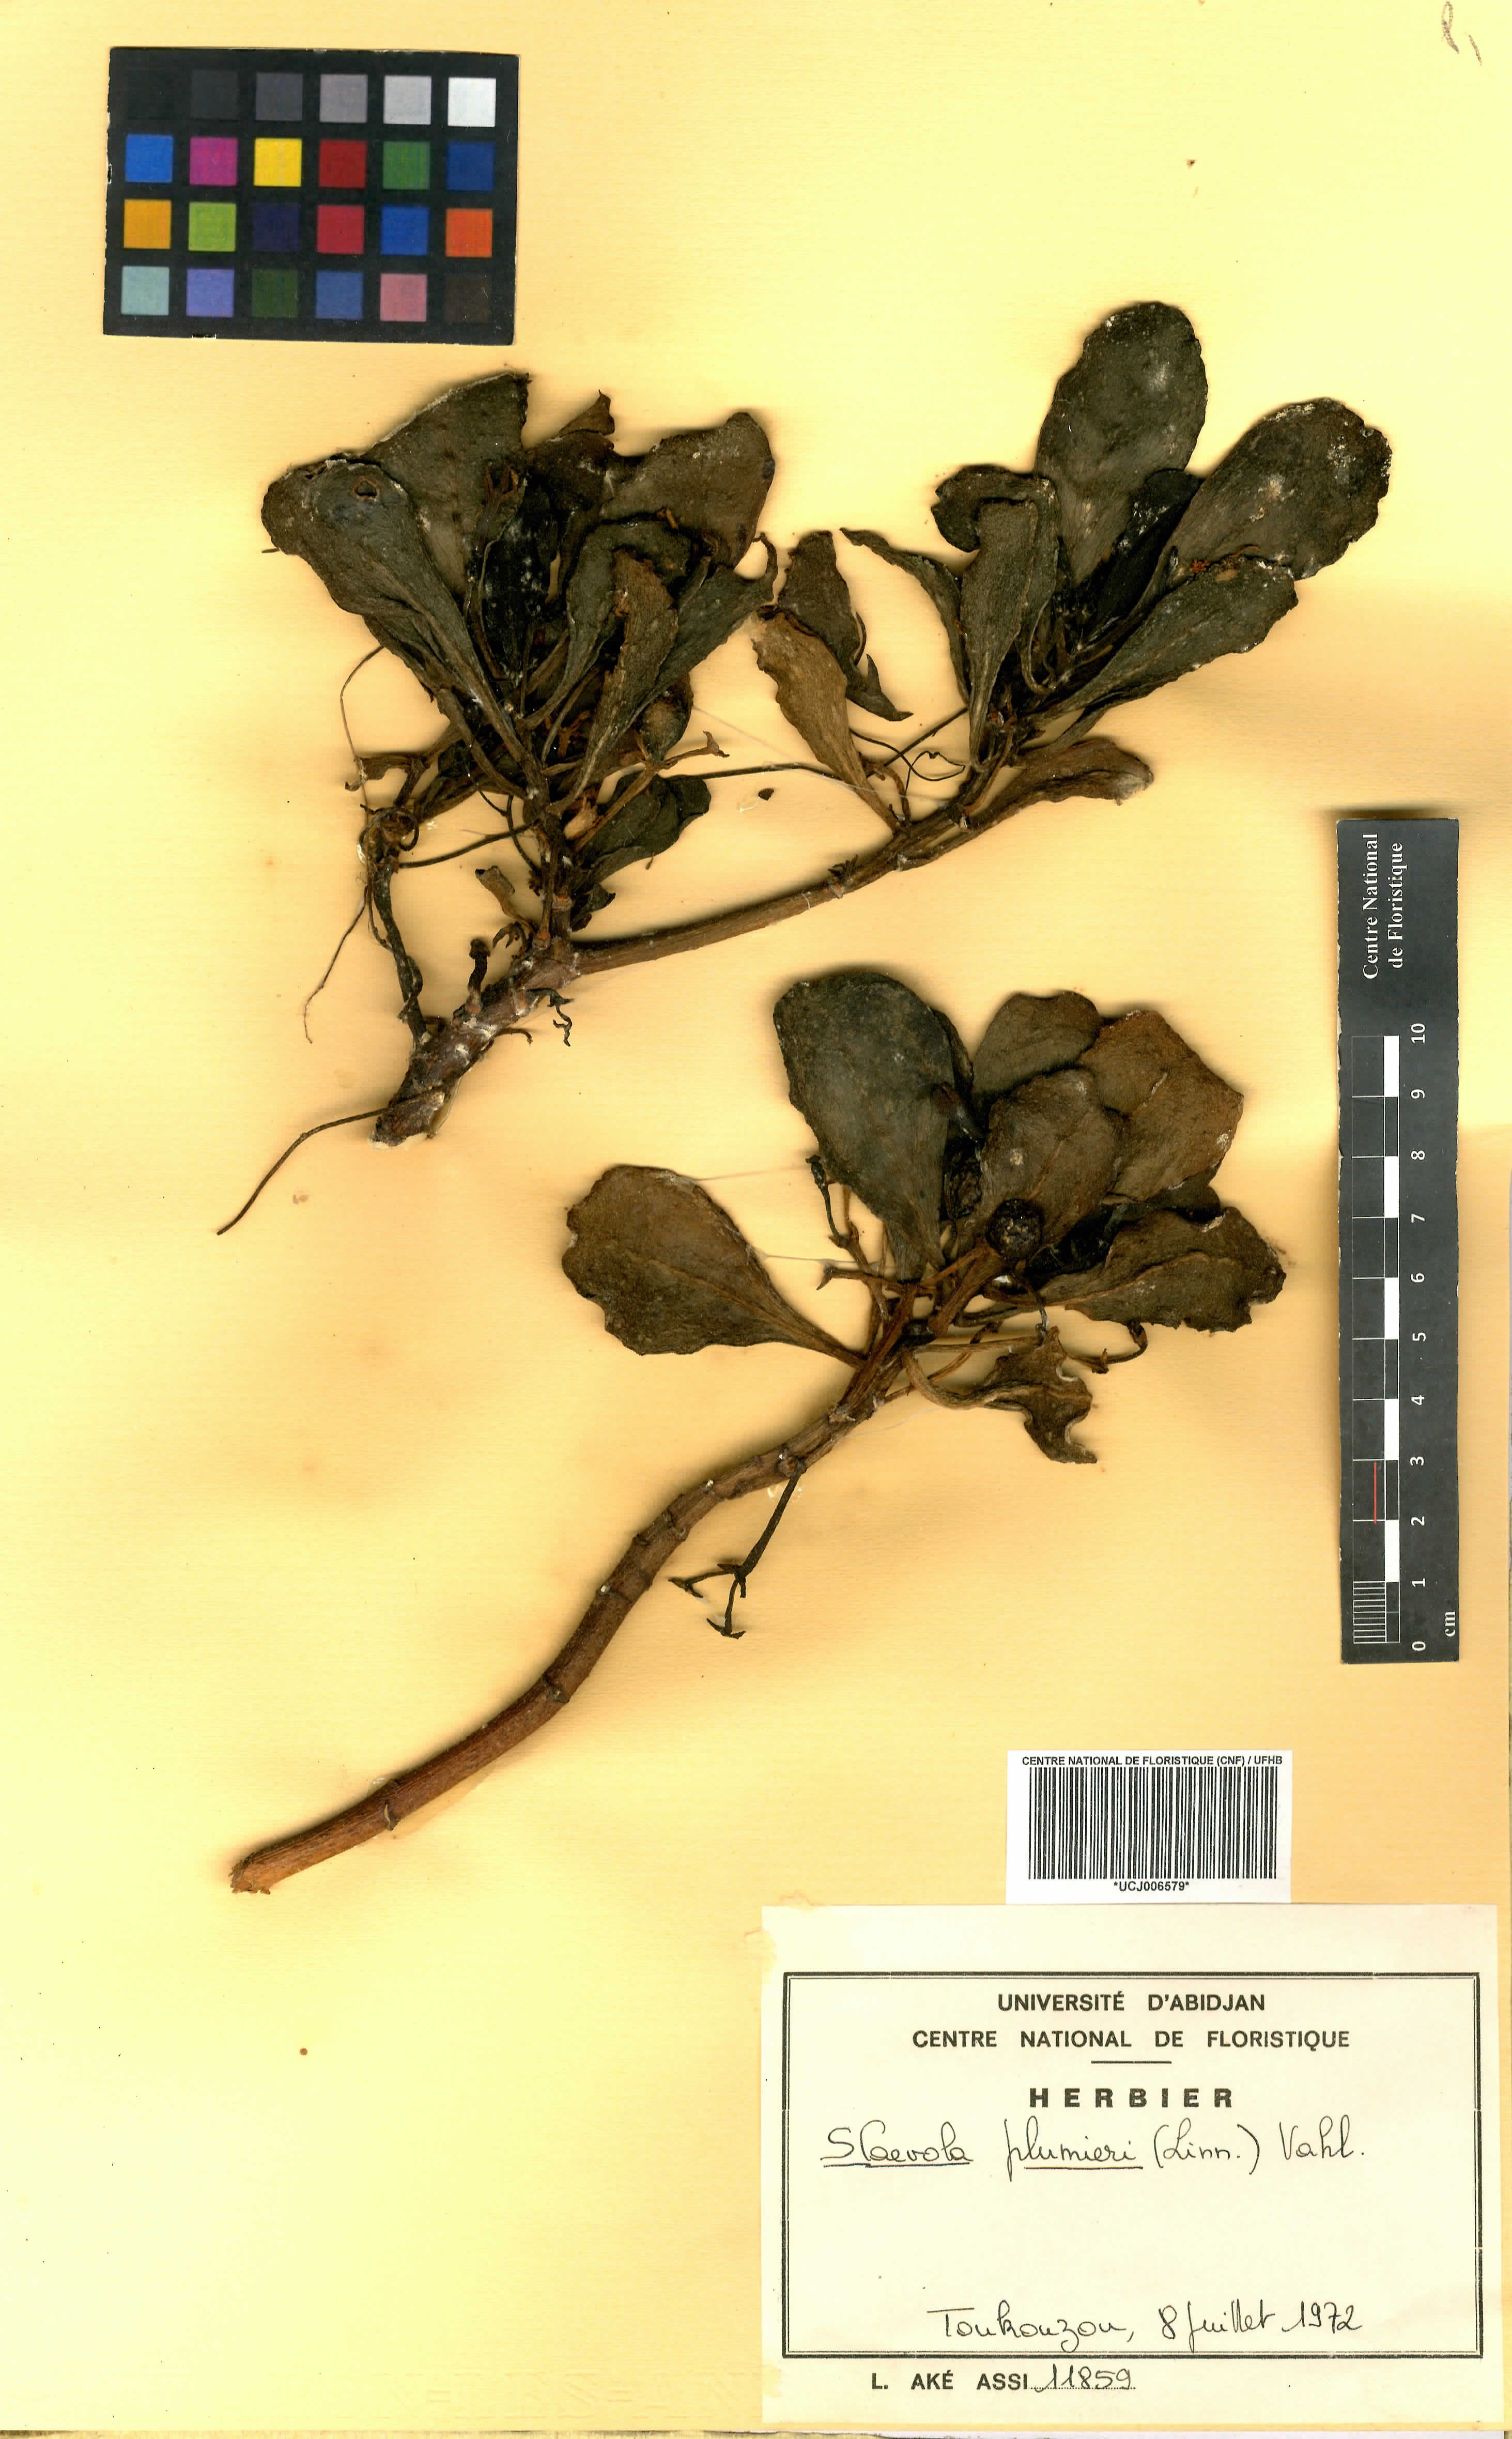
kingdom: Plantae
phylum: Tracheophyta
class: Magnoliopsida
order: Asterales
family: Goodeniaceae
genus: Scaevola
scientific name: Scaevola plumieri
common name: Gull feed
